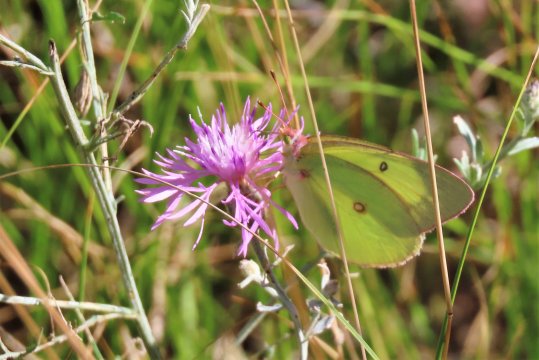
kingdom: Animalia
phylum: Arthropoda
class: Insecta
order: Lepidoptera
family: Pieridae
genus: Colias
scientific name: Colias interior
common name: Pink-edged Sulphur
